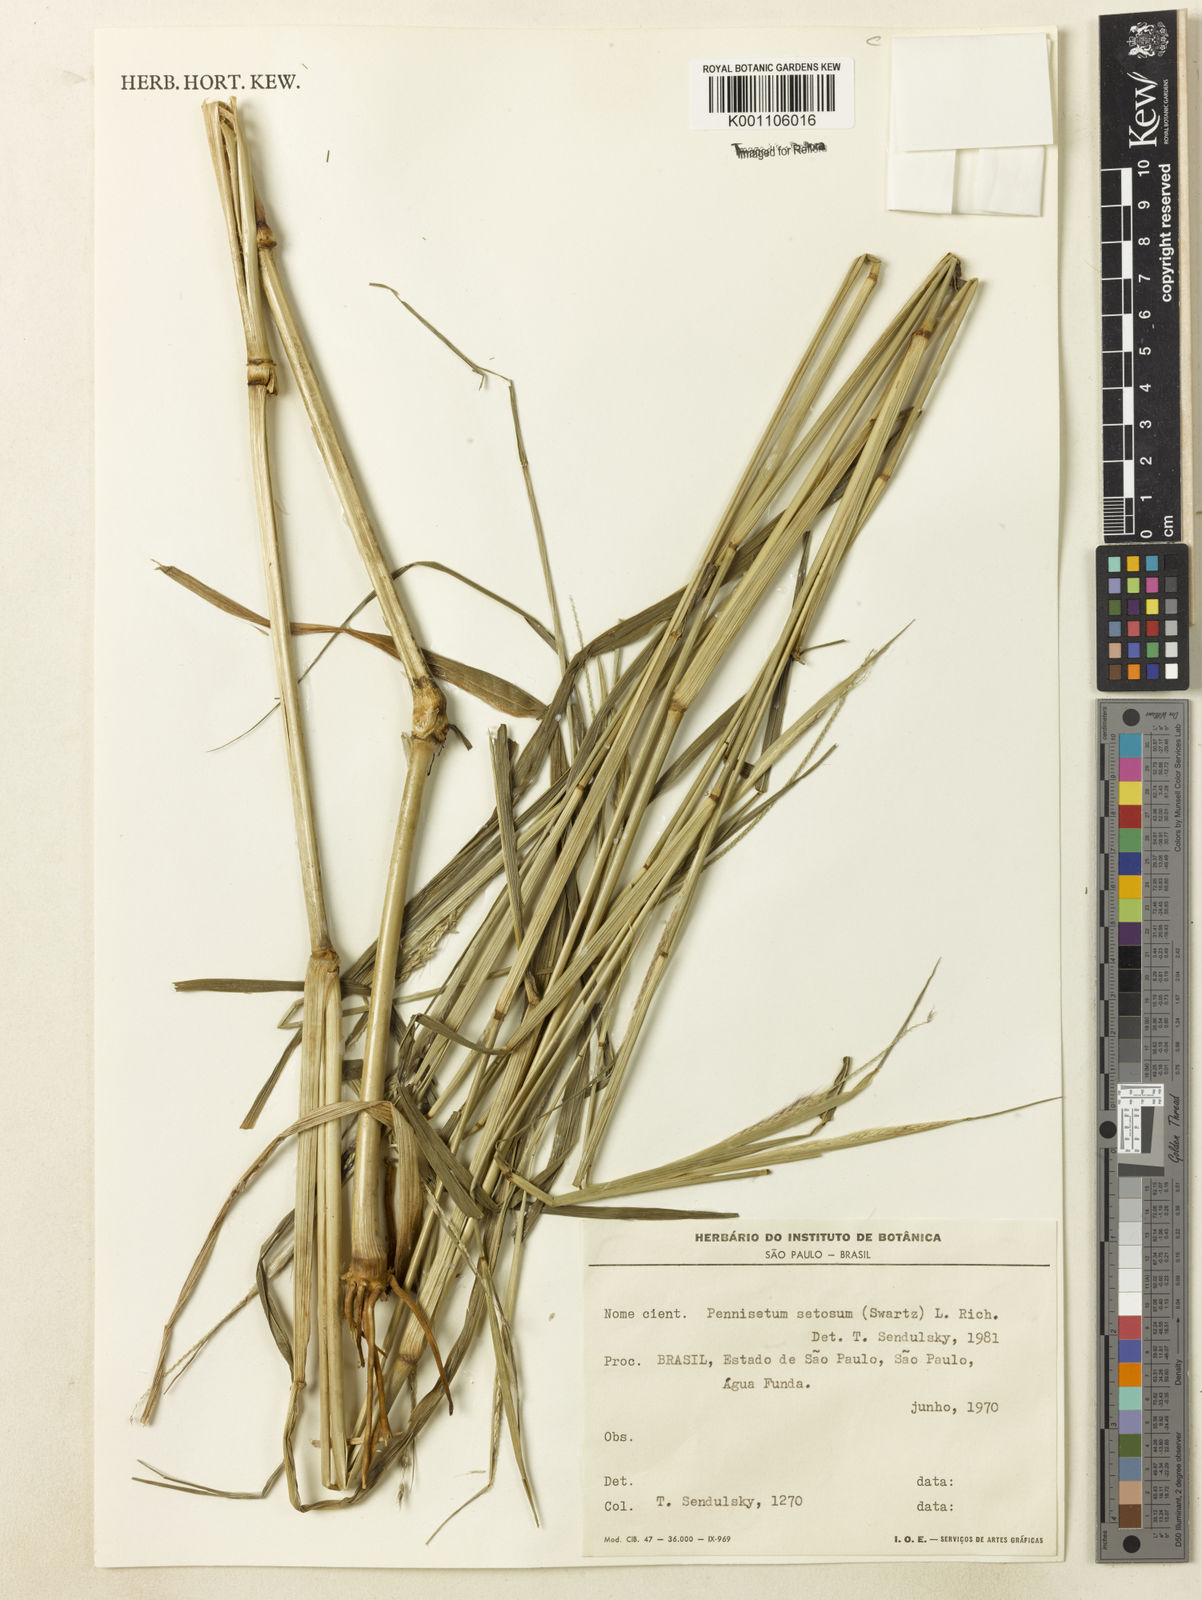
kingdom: Plantae
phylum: Tracheophyta
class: Liliopsida
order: Poales
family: Poaceae
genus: Setaria
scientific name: Setaria parviflora
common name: Knotroot bristle-grass
